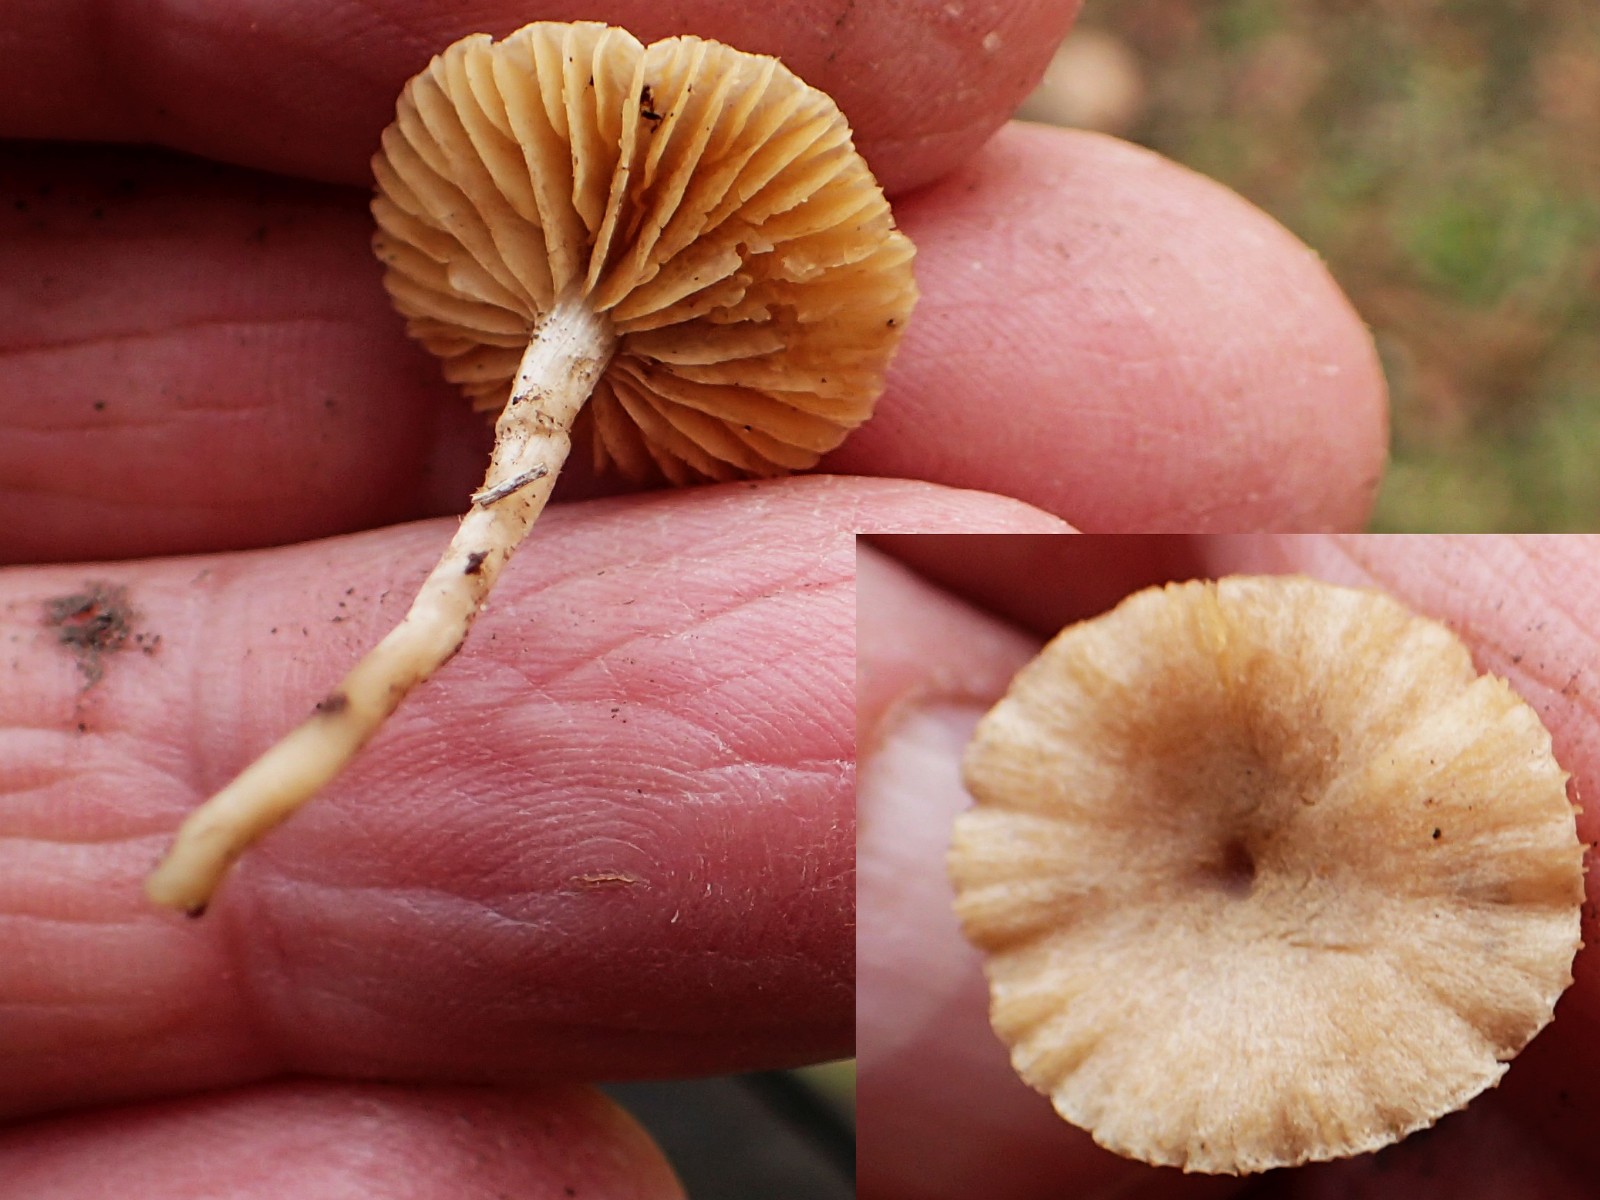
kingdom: Fungi
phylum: Basidiomycota
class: Agaricomycetes
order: Agaricales
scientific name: Agaricales
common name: champignonordenen
